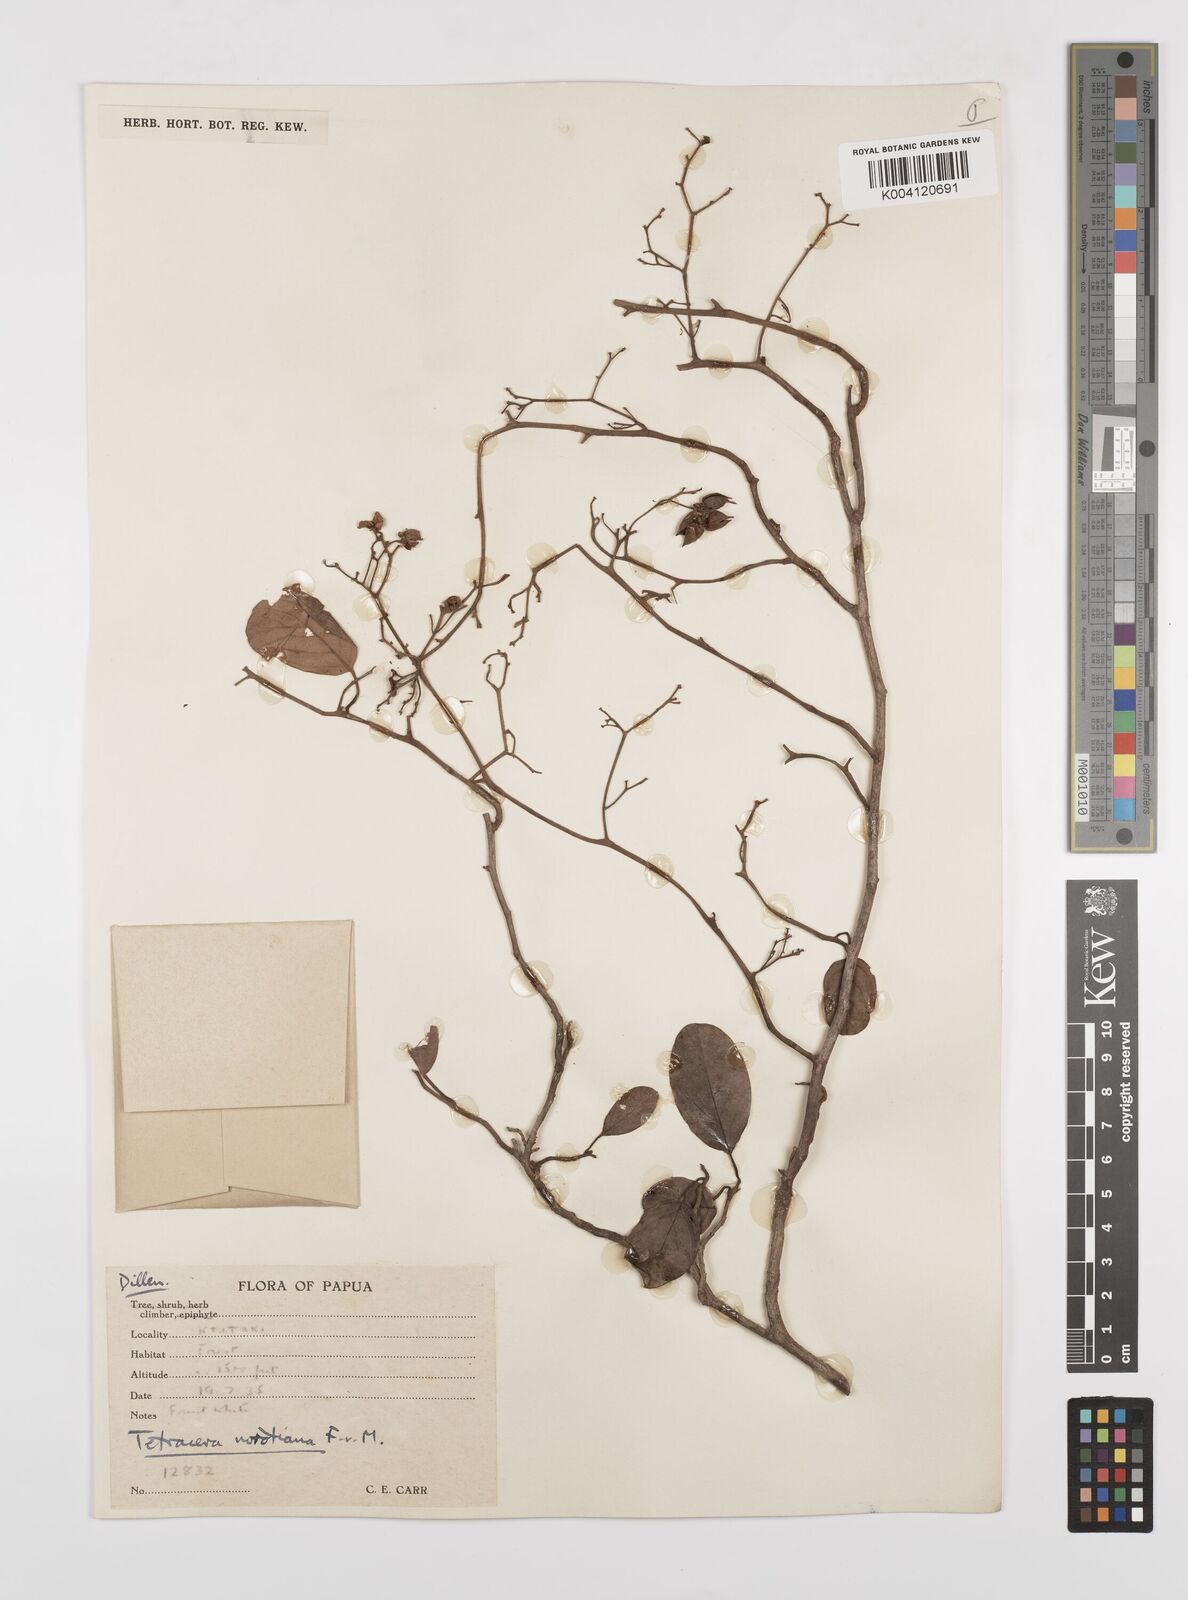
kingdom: Plantae
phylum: Tracheophyta
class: Magnoliopsida
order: Dilleniales
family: Dilleniaceae
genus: Tetracera
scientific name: Tetracera nordtiana
